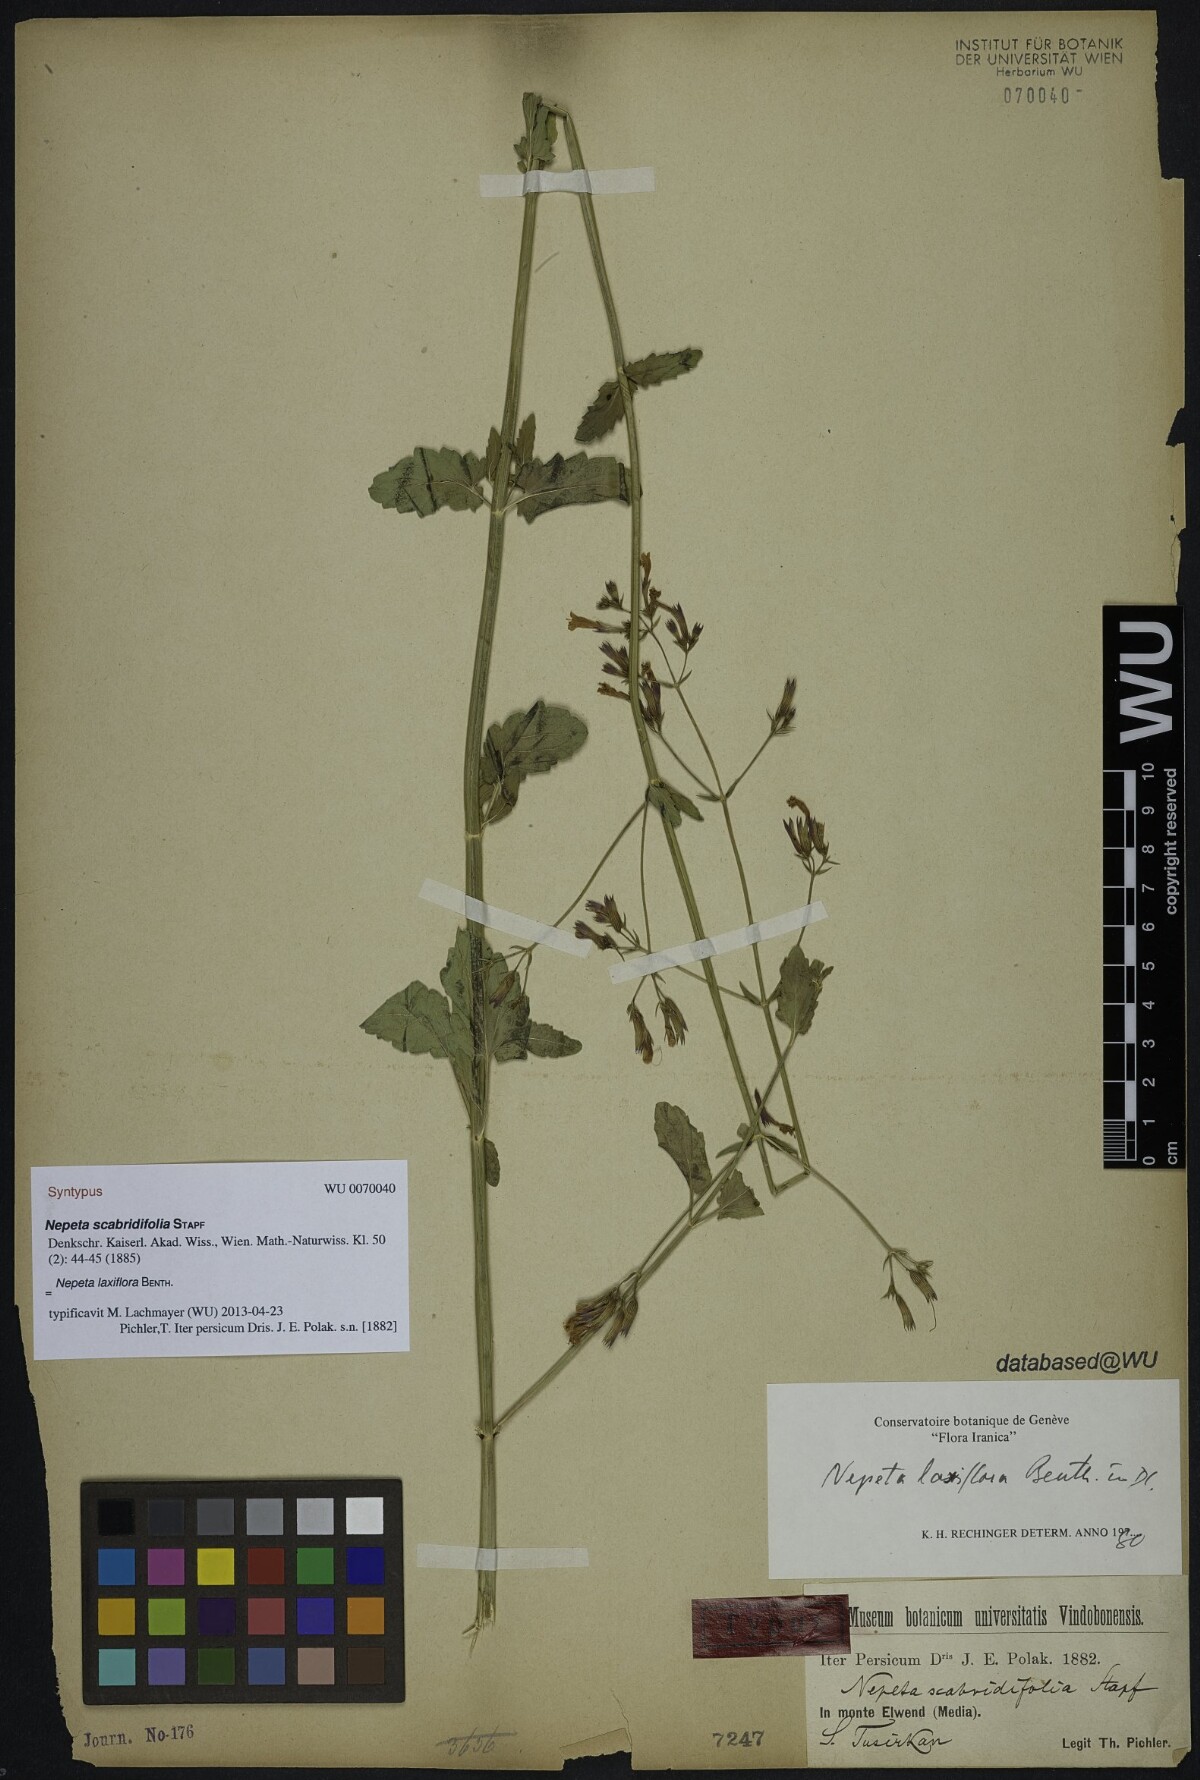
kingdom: Plantae
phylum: Tracheophyta
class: Magnoliopsida
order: Lamiales
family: Lamiaceae
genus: Nepeta
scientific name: Nepeta laxiflora
